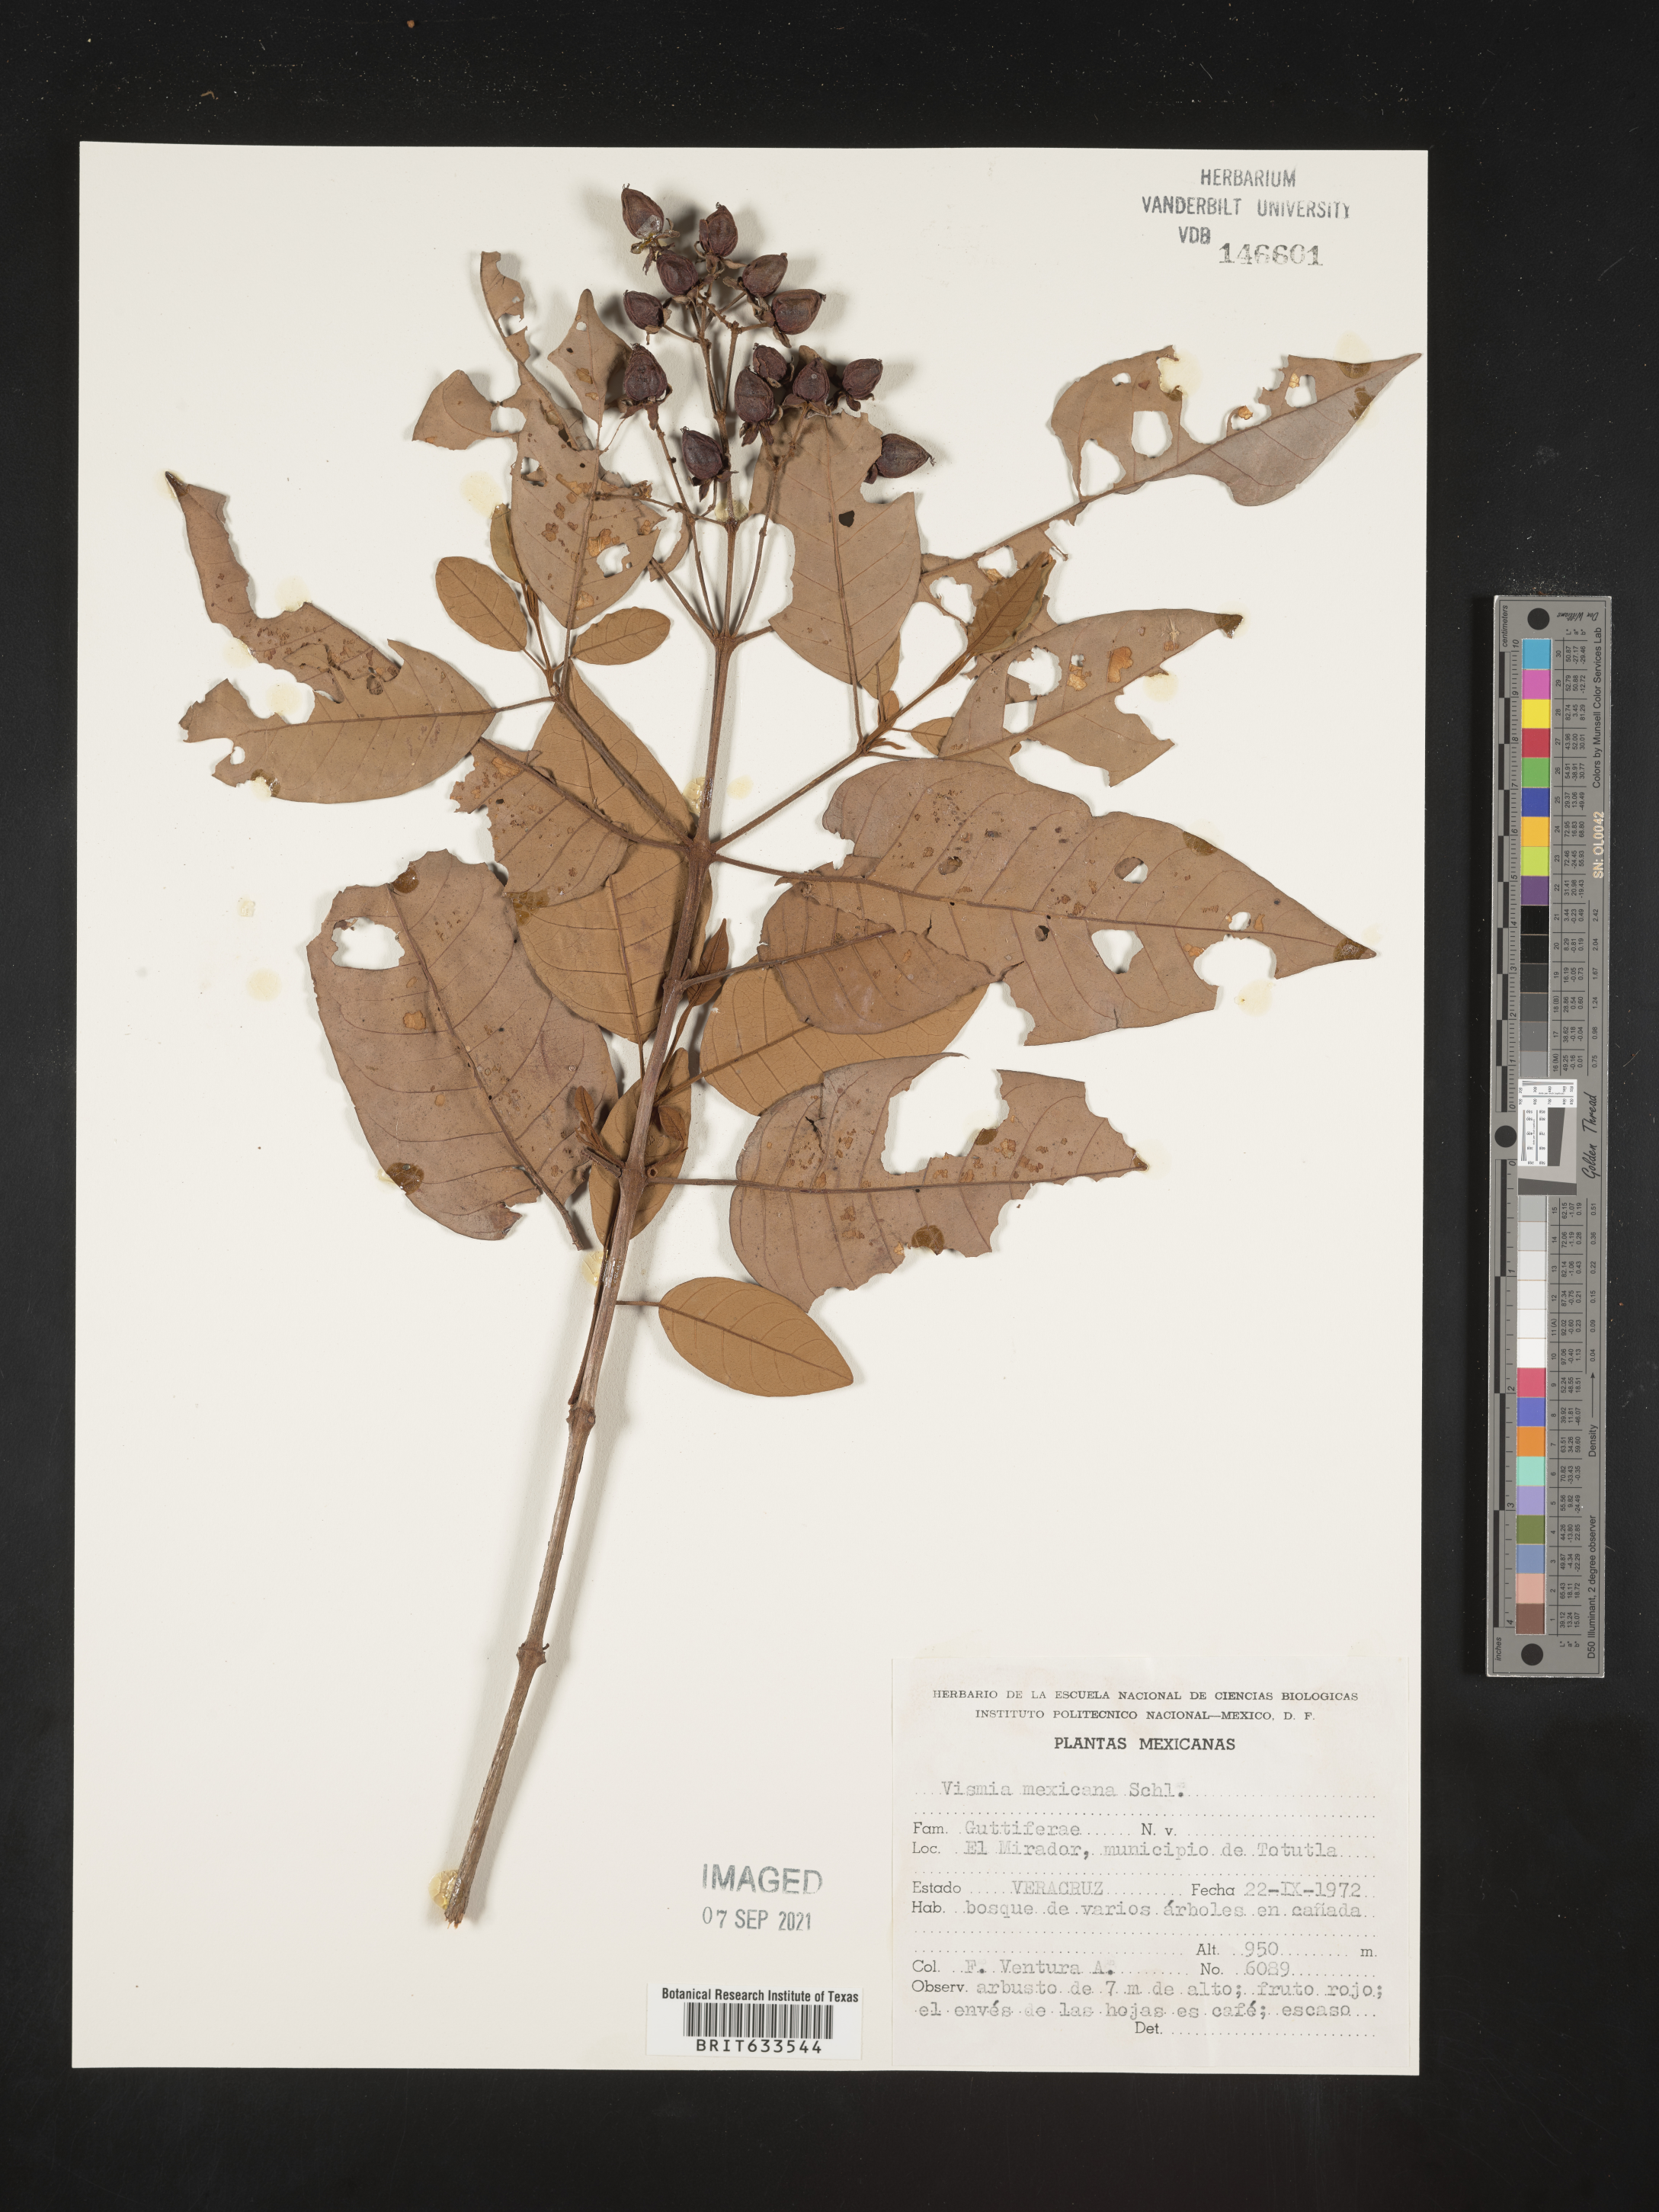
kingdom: Plantae
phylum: Tracheophyta
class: Magnoliopsida
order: Malpighiales
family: Hypericaceae
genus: Vismia
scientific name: Vismia
